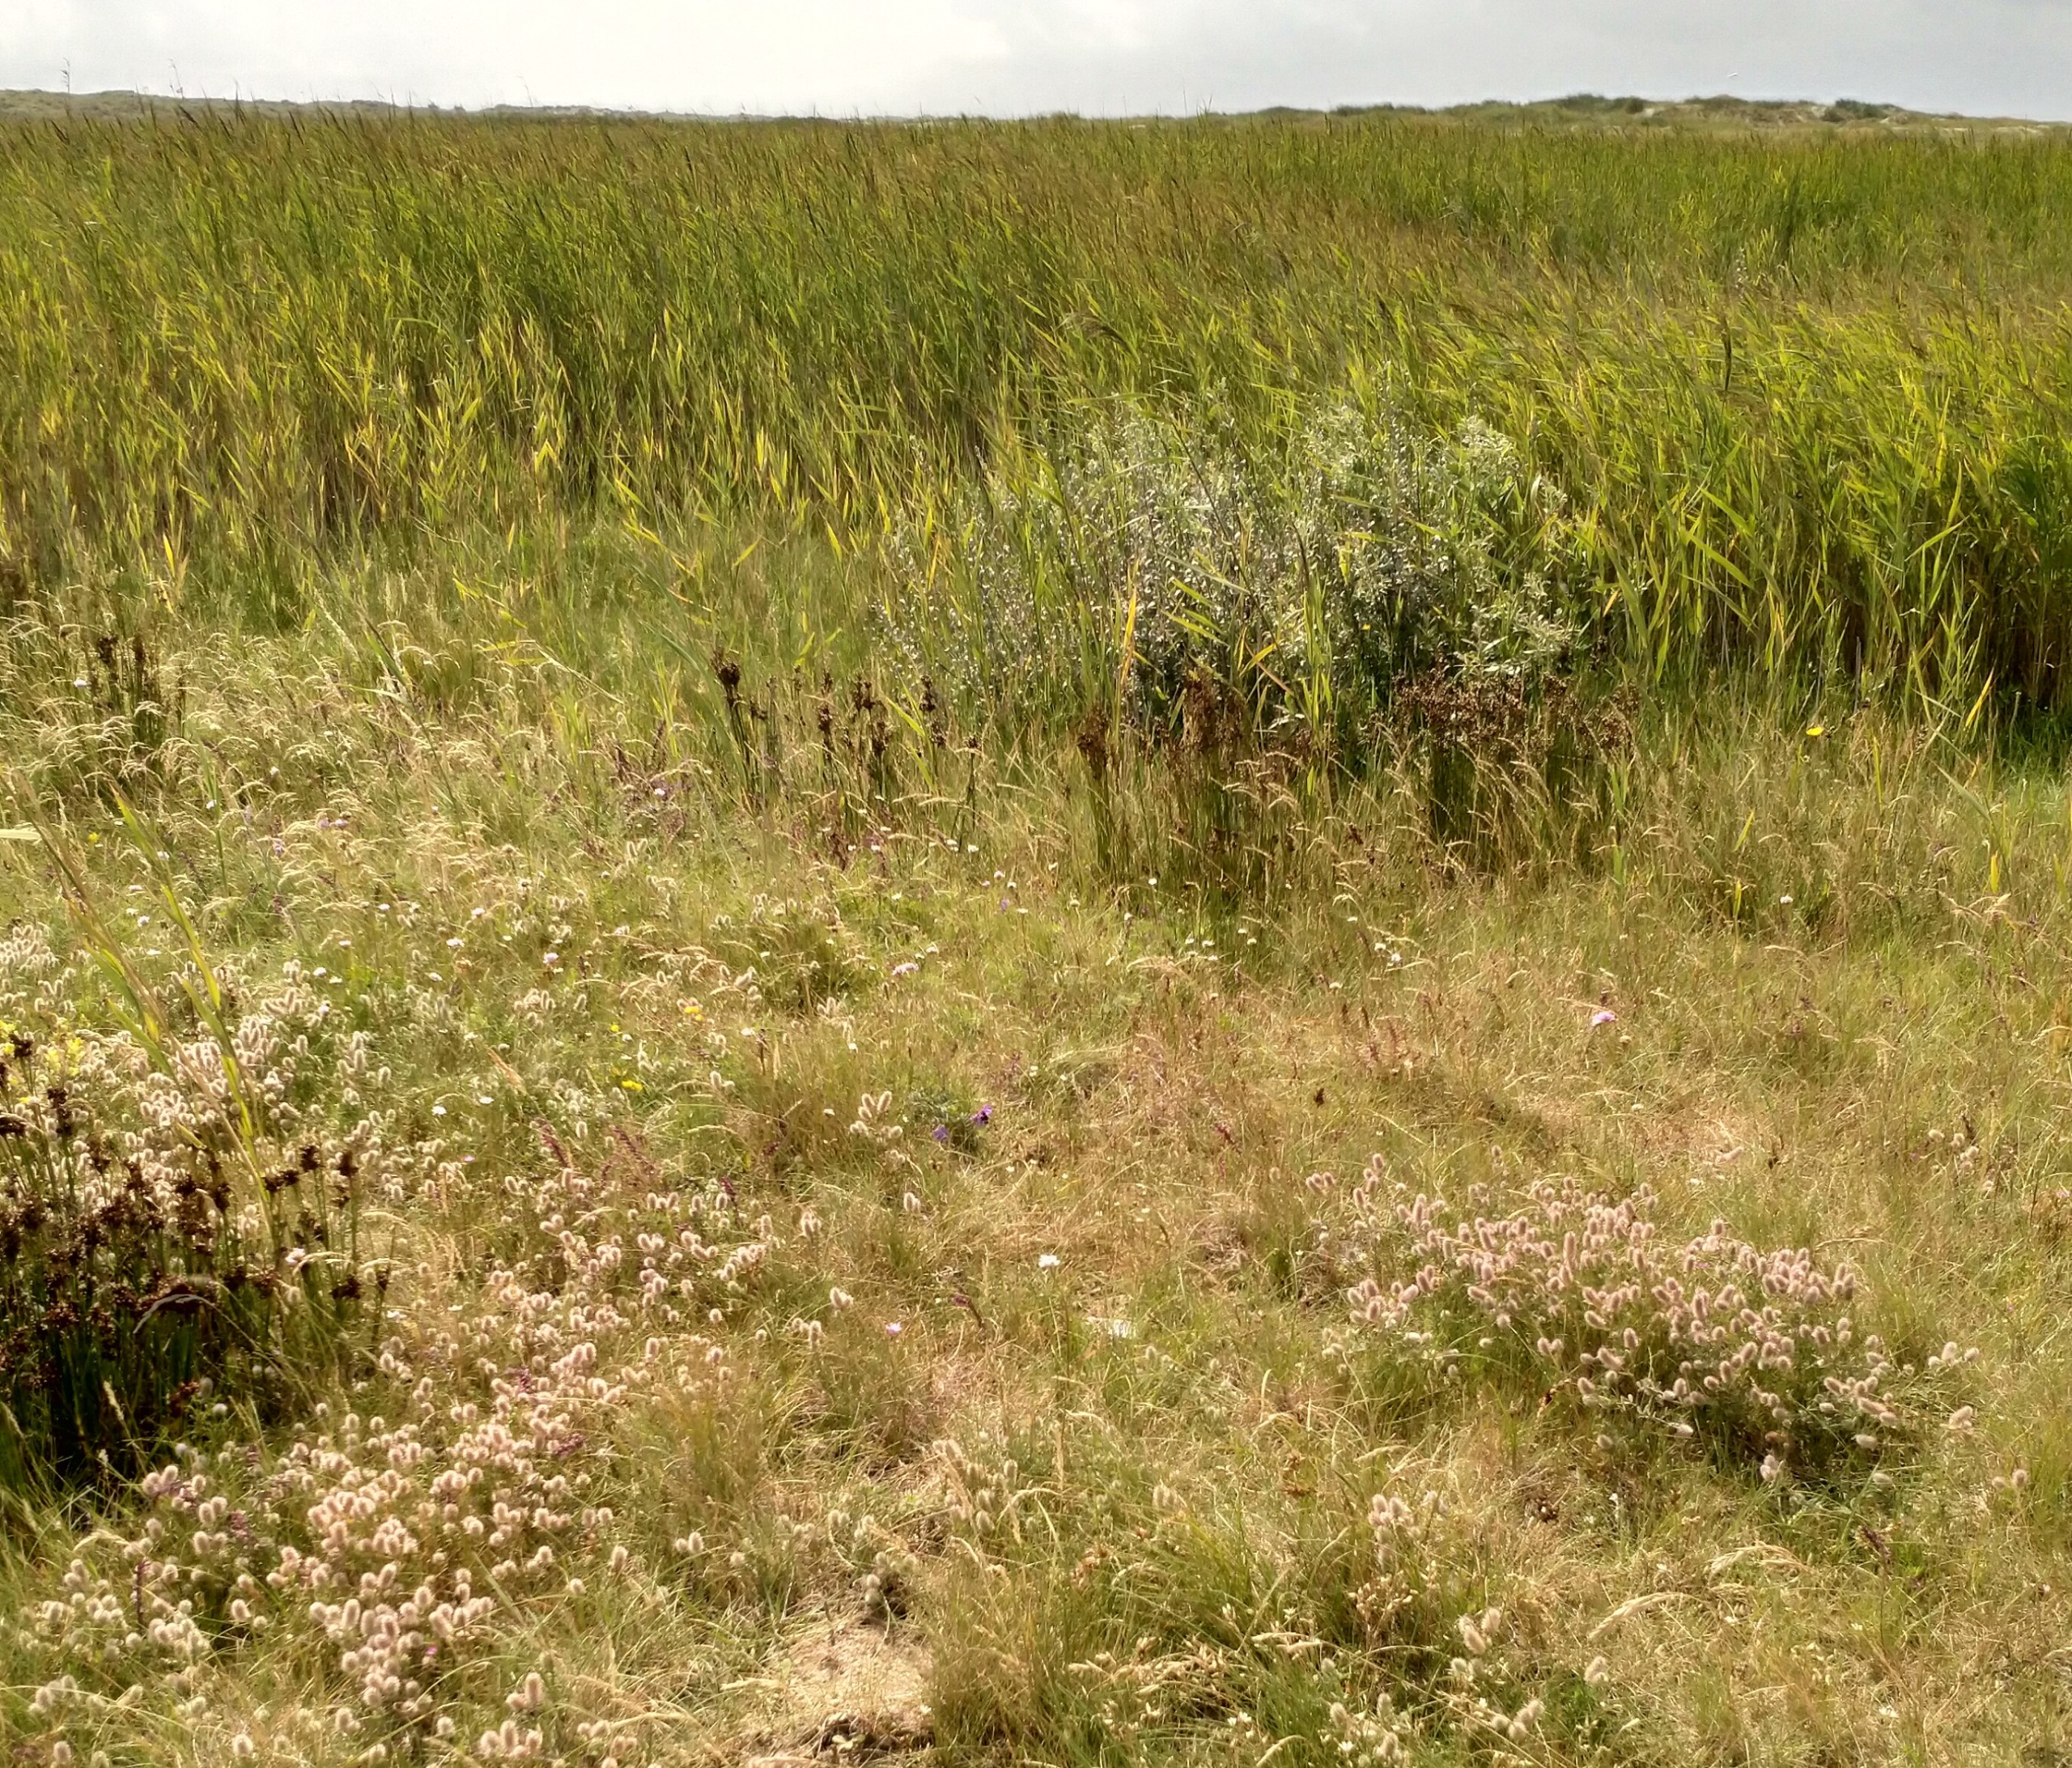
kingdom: Plantae
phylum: Tracheophyta
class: Magnoliopsida
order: Fabales
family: Fabaceae
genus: Trifolium
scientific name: Trifolium arvense
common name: Hare-kløver
